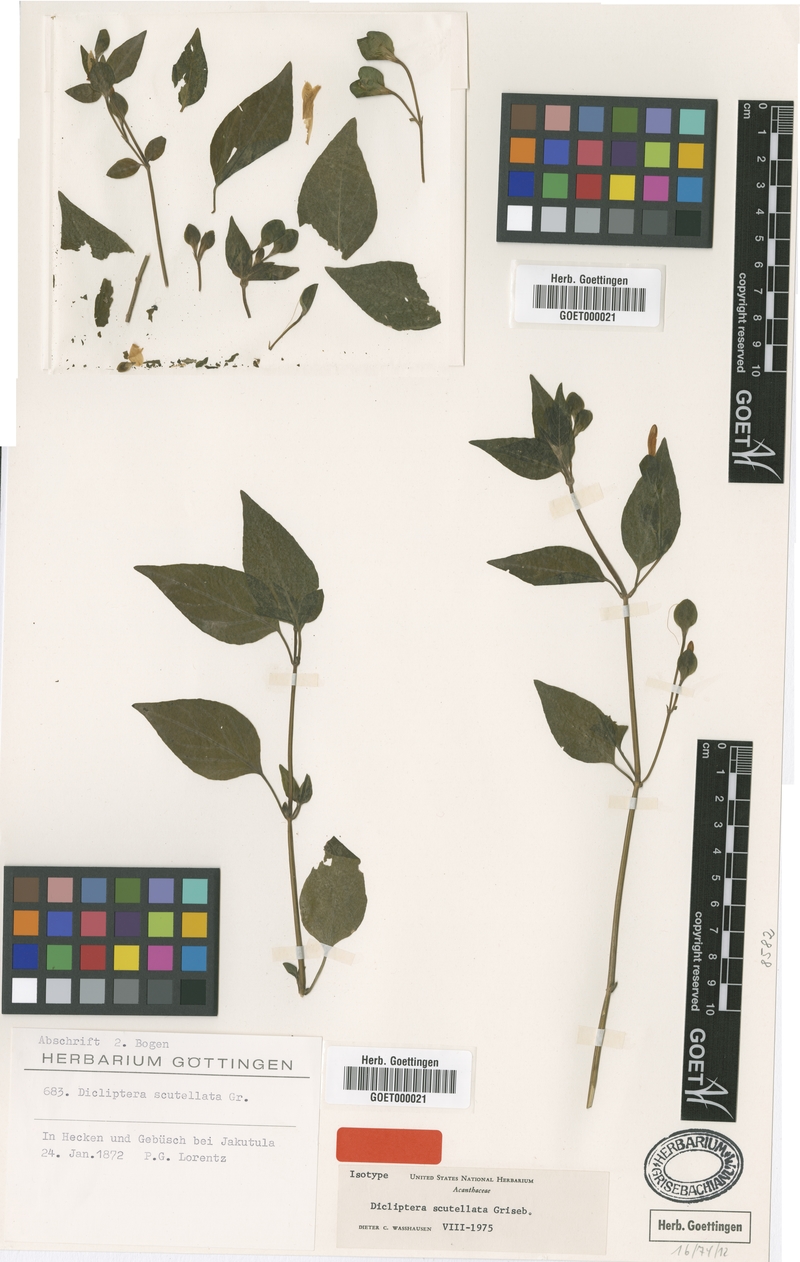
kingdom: Plantae
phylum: Tracheophyta
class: Magnoliopsida
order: Lamiales
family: Acanthaceae
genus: Dicliptera
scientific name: Dicliptera scutellata
